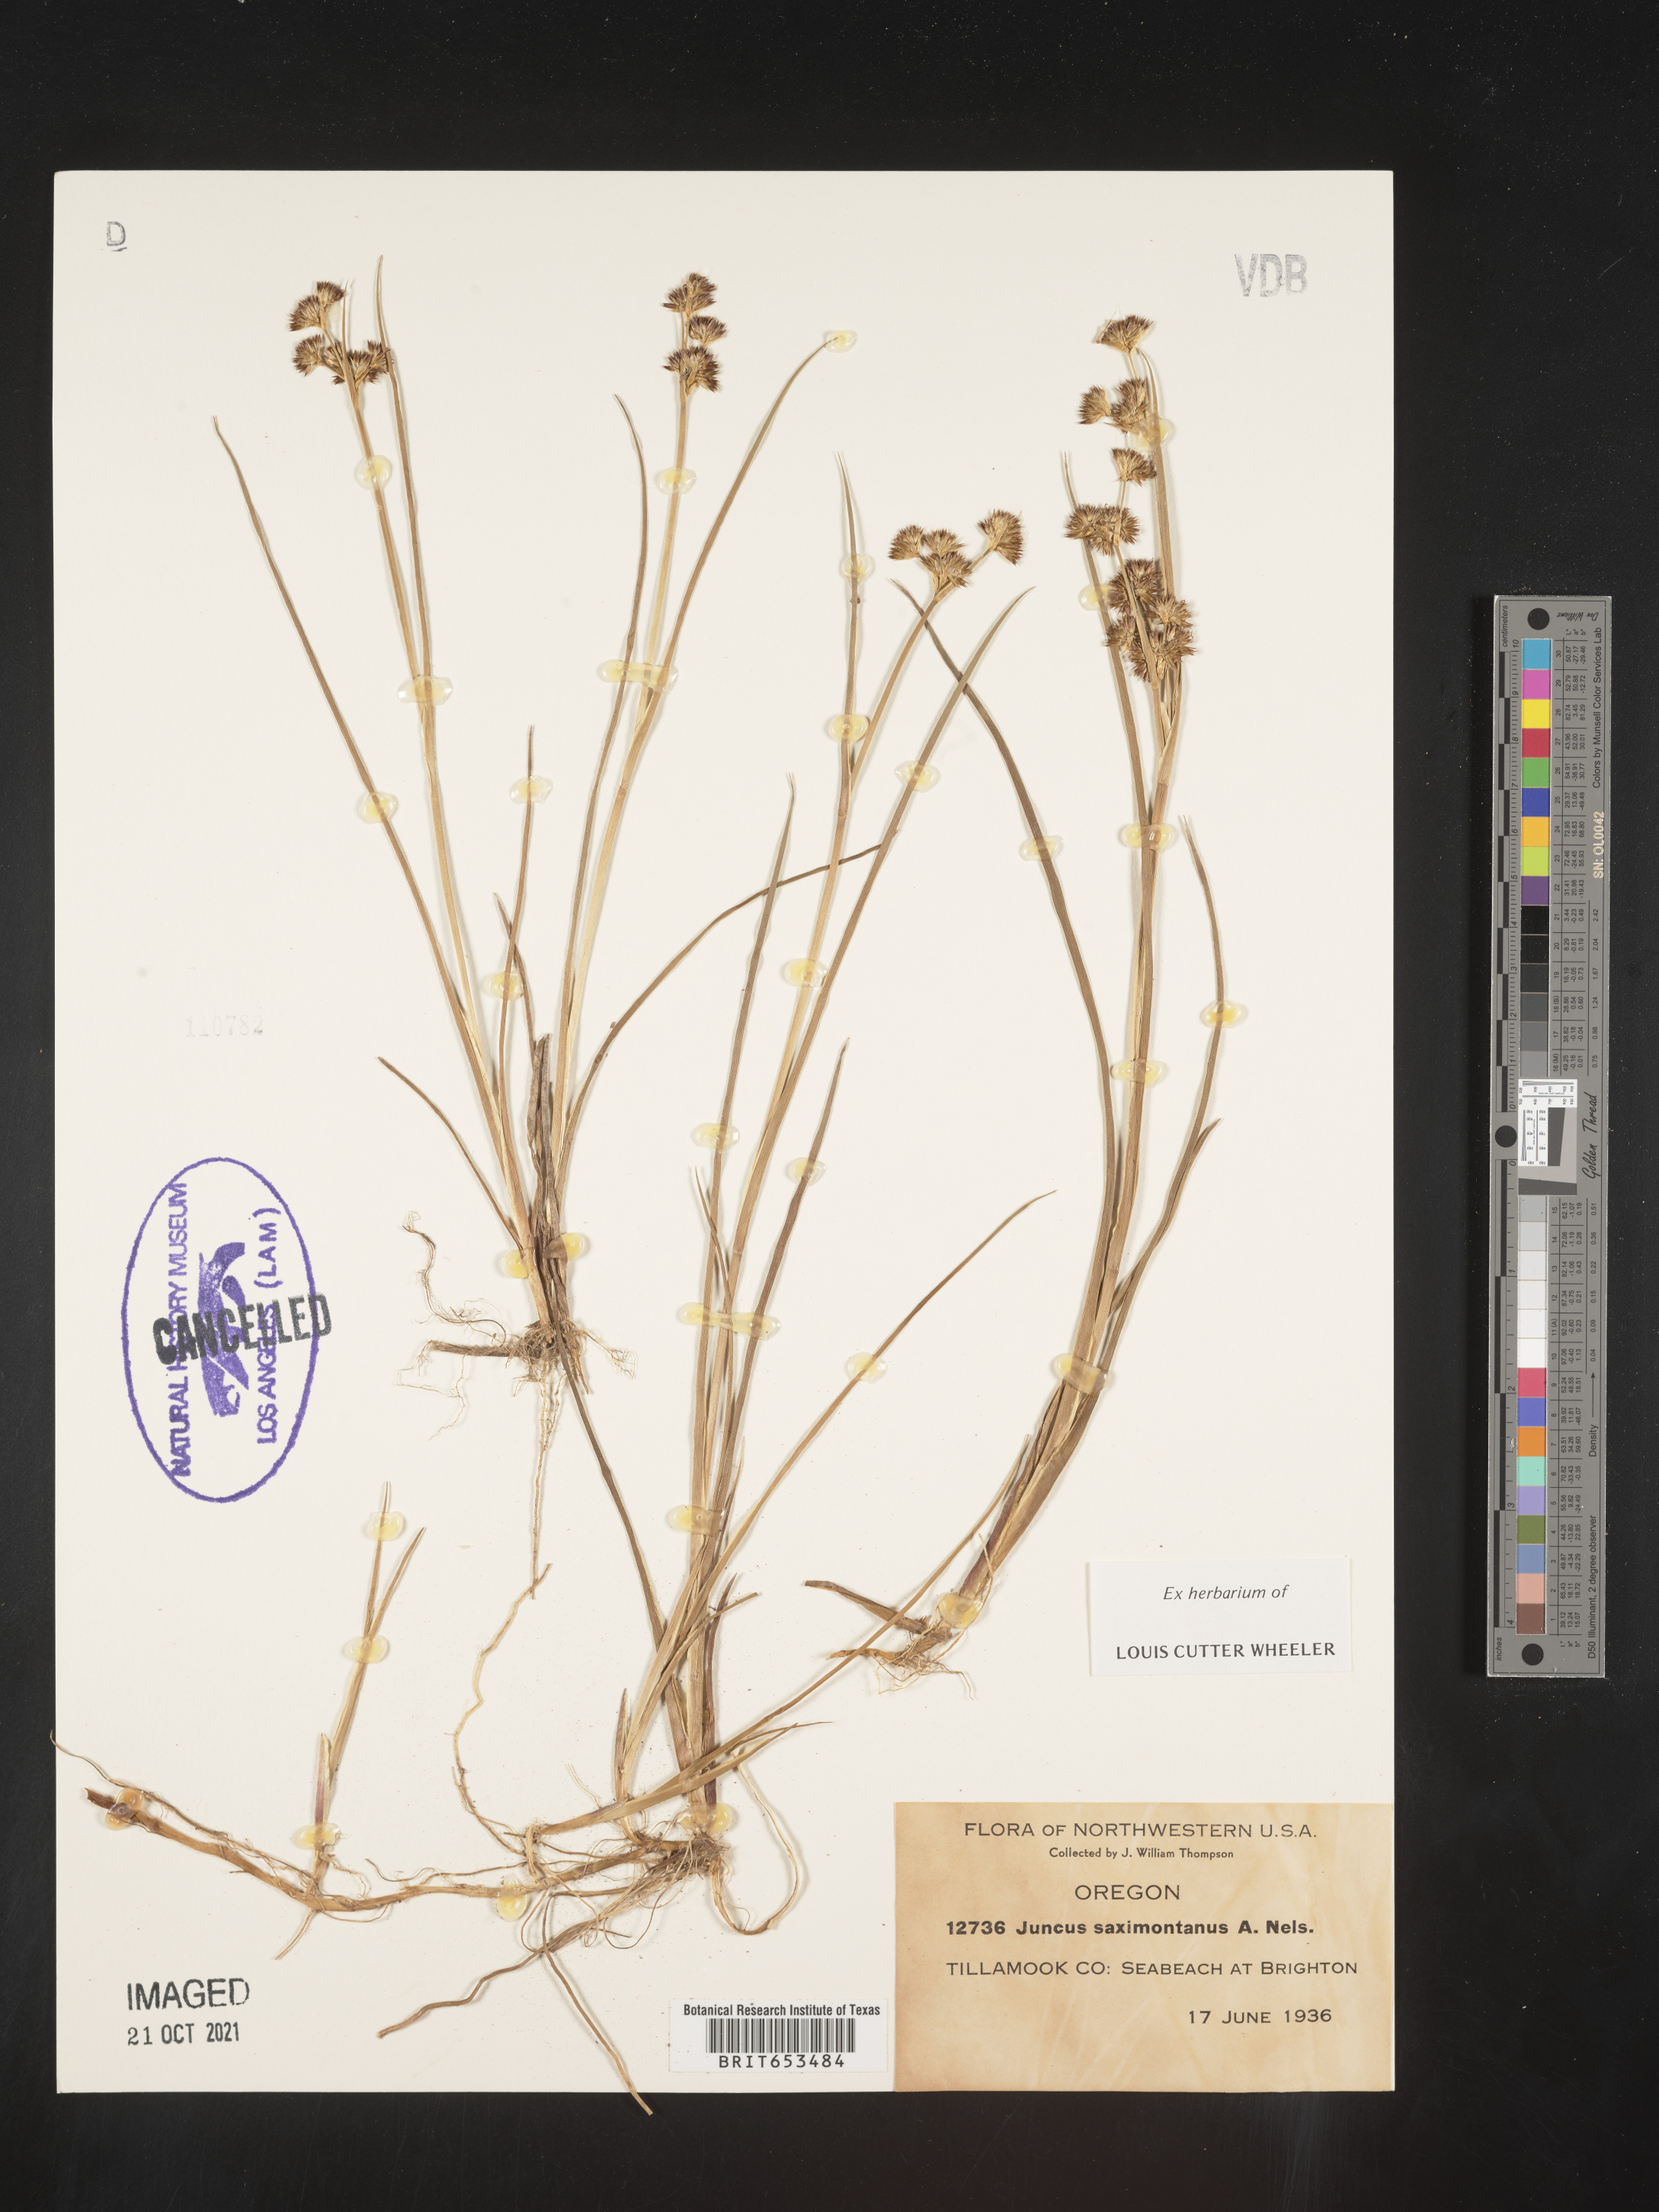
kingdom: Plantae
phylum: Tracheophyta
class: Liliopsida
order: Poales
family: Juncaceae
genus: Juncus
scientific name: Juncus saximontanus
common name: Rocky mountain rush
